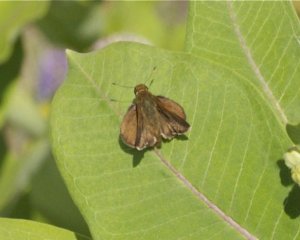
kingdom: Animalia
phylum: Arthropoda
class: Insecta
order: Lepidoptera
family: Hesperiidae
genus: Euphyes
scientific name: Euphyes vestris
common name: Dun Skipper
